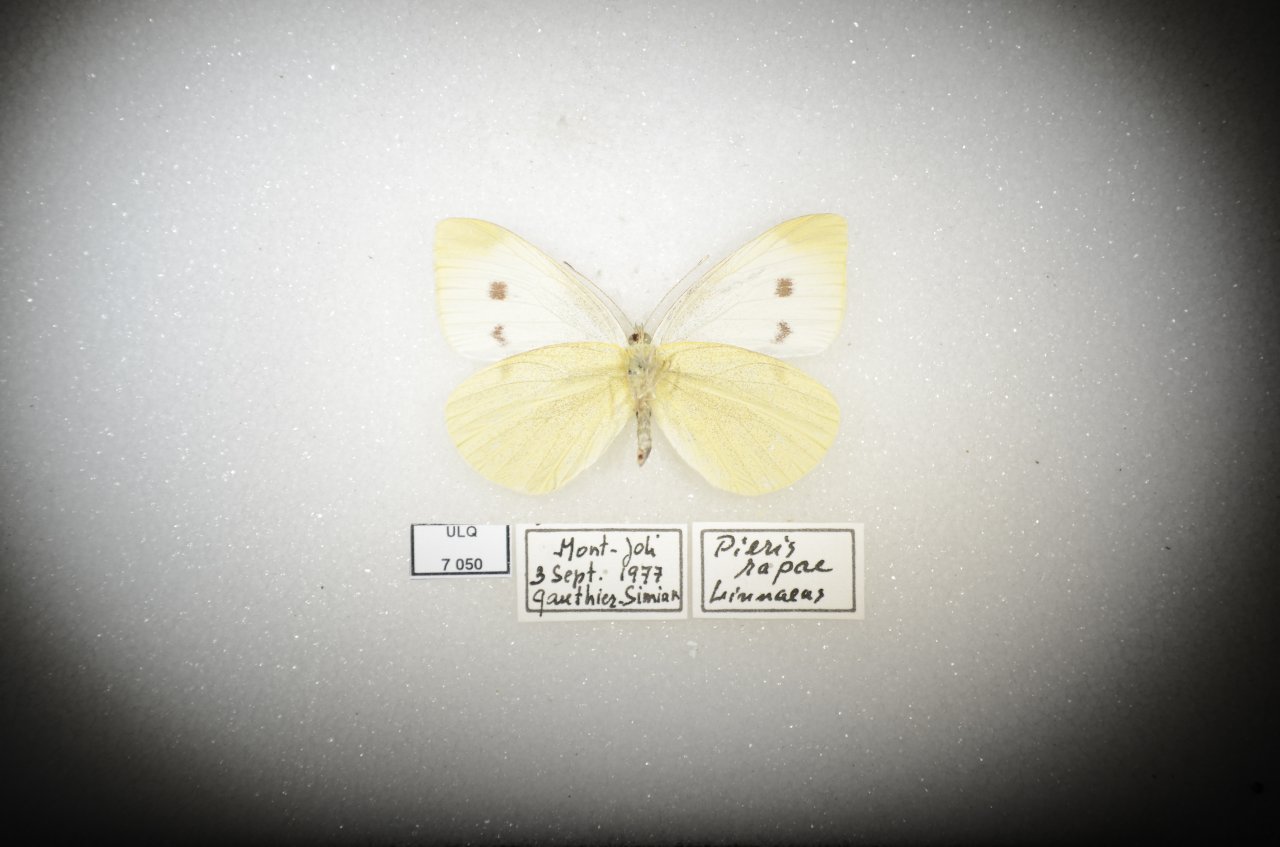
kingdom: Animalia
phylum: Arthropoda
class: Insecta
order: Lepidoptera
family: Pieridae
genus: Pieris
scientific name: Pieris rapae
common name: Cabbage White
